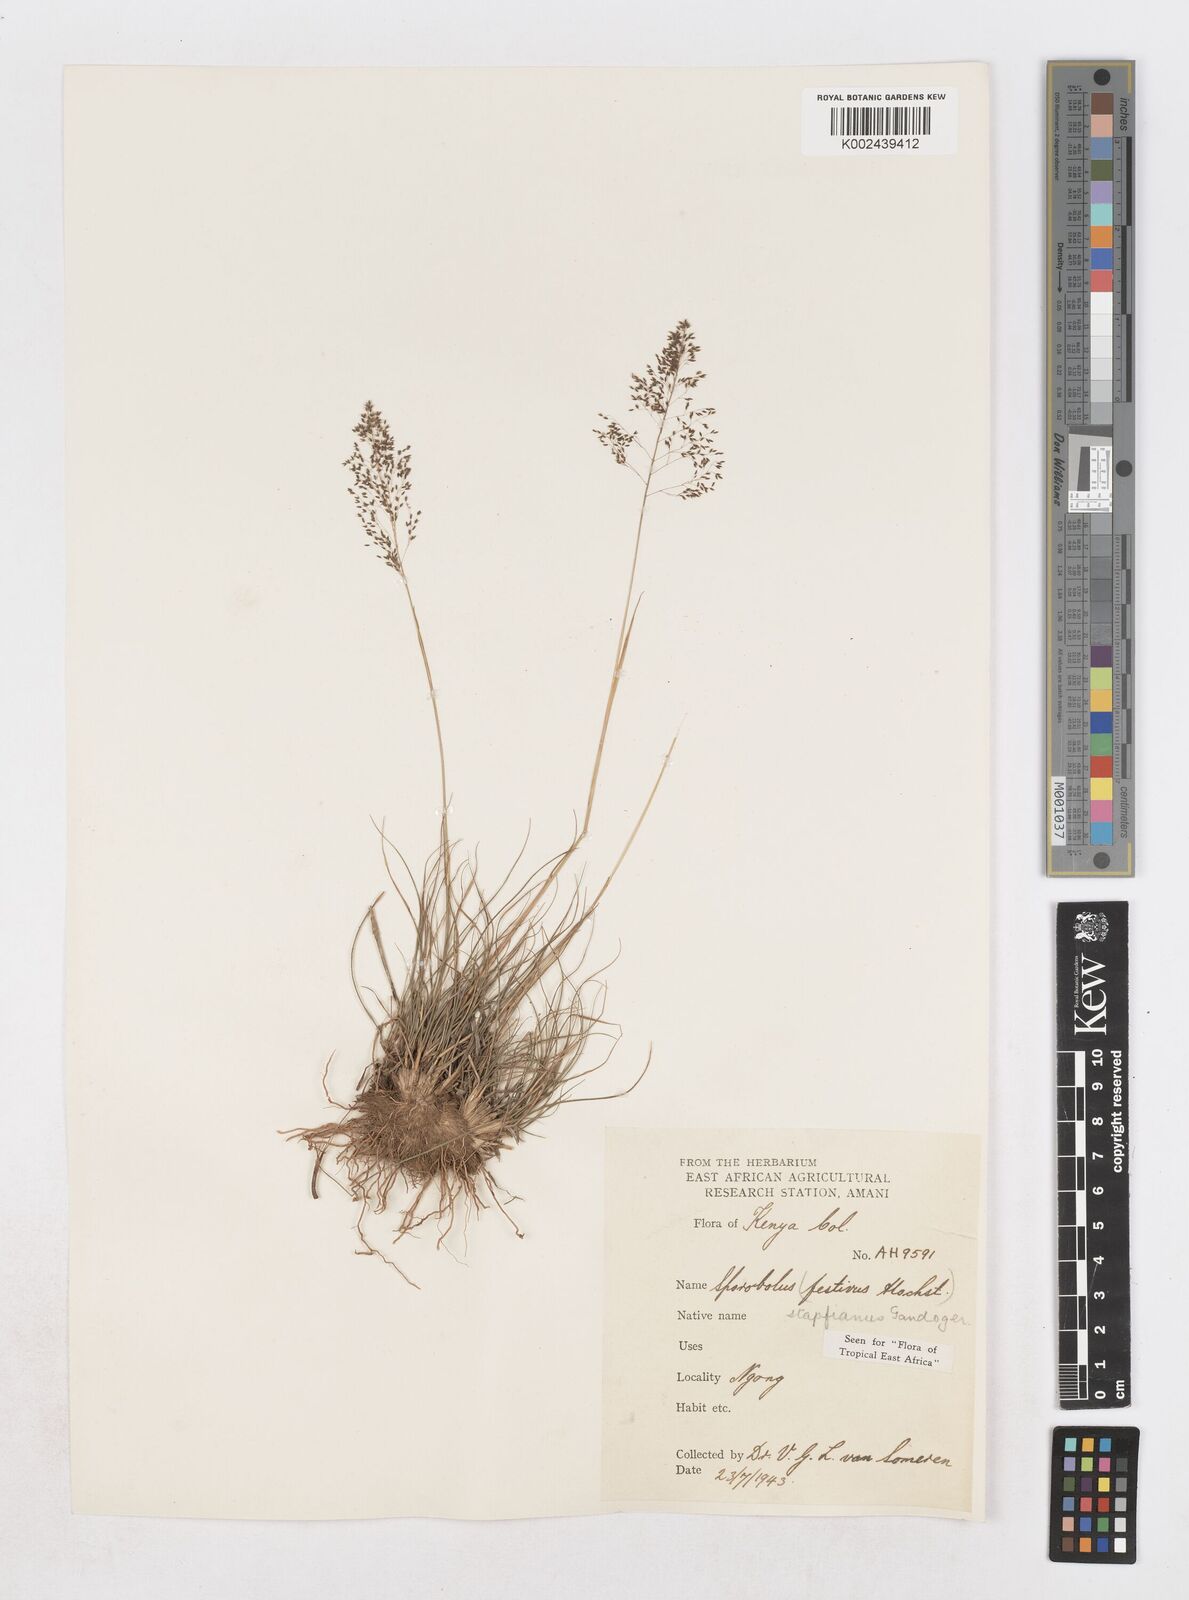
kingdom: Plantae
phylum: Tracheophyta
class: Liliopsida
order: Poales
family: Poaceae
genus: Sporobolus
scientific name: Sporobolus stapfianus
